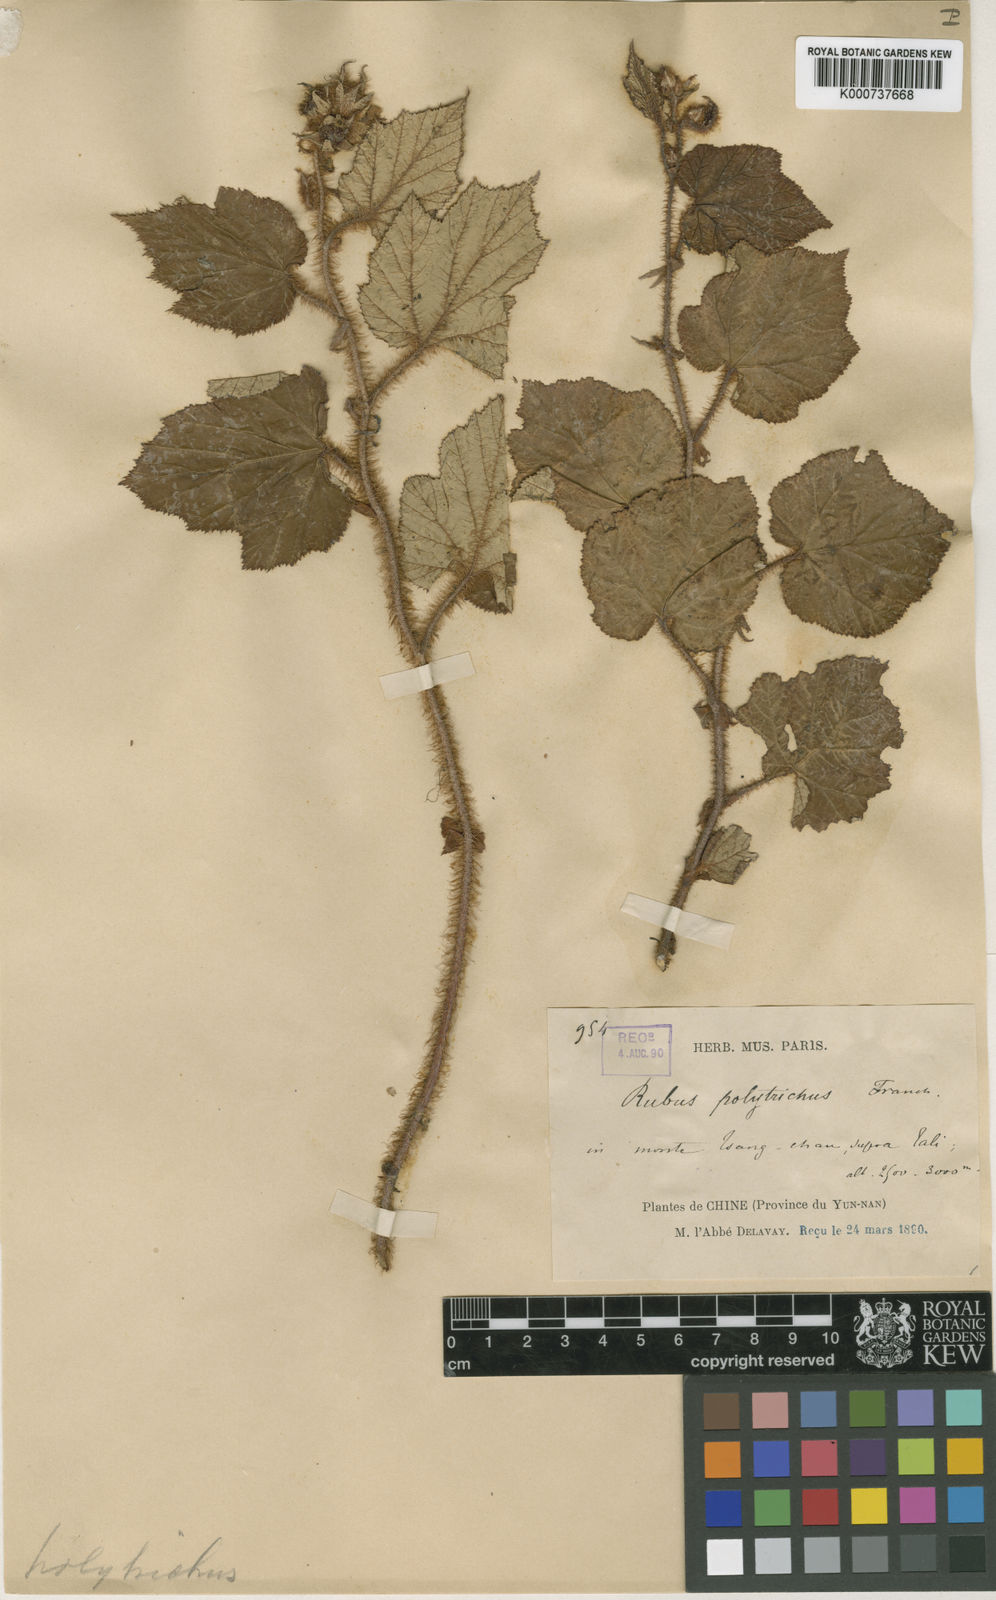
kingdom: Plantae
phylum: Tracheophyta
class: Magnoliopsida
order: Rosales
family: Rosaceae
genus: Rubus
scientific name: Rubus
